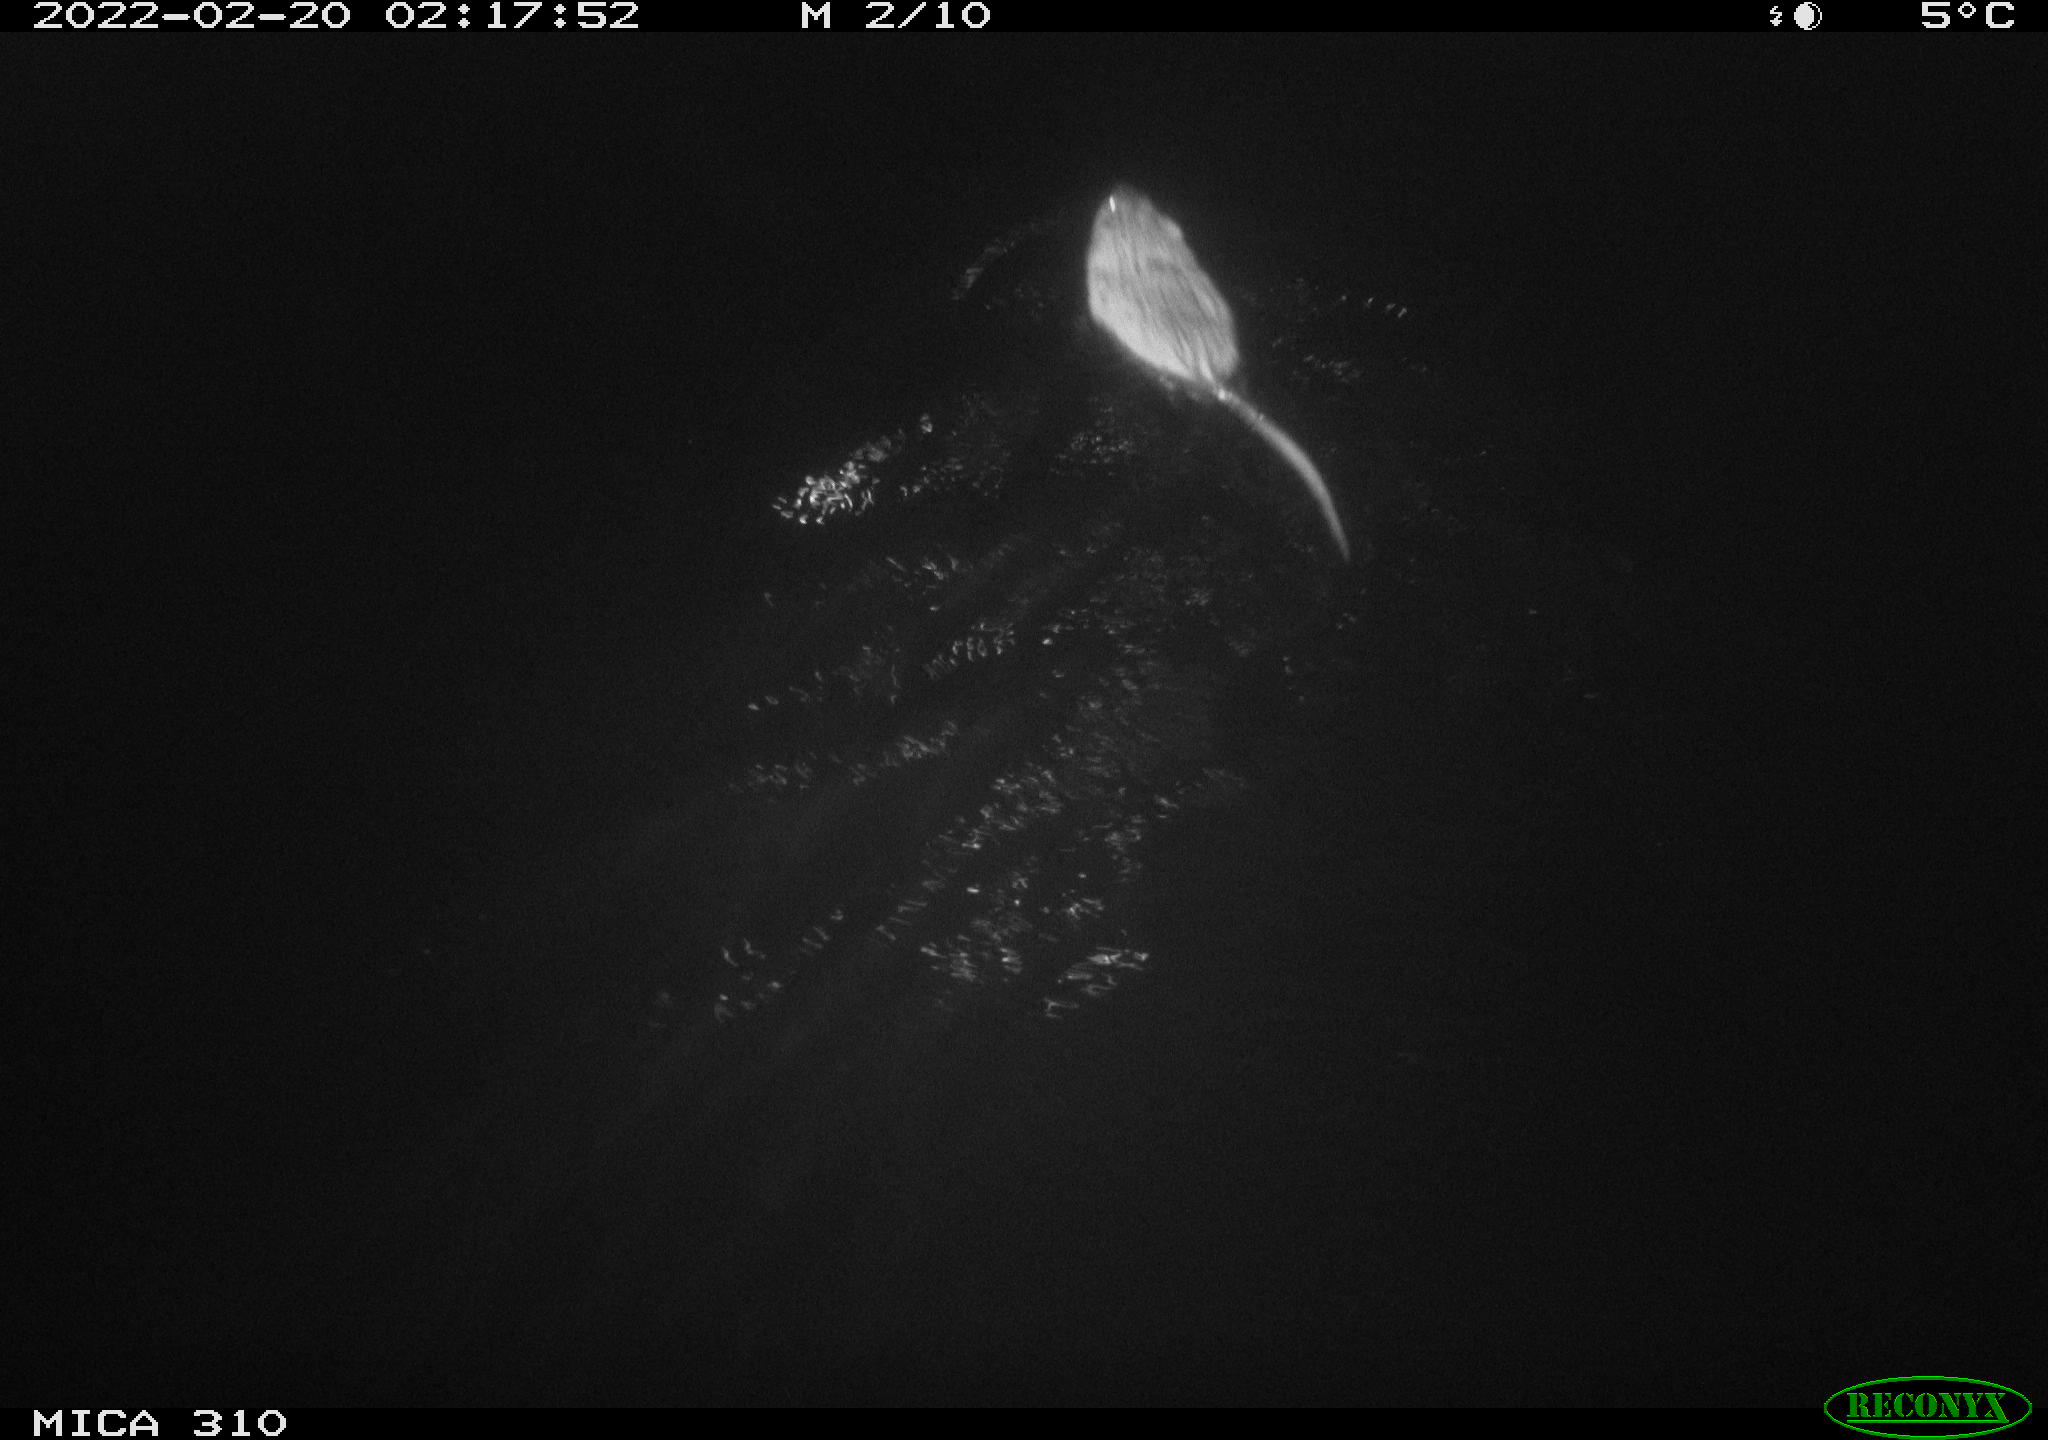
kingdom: Animalia
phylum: Chordata
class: Mammalia
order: Rodentia
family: Cricetidae
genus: Ondatra
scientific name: Ondatra zibethicus
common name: Muskrat
